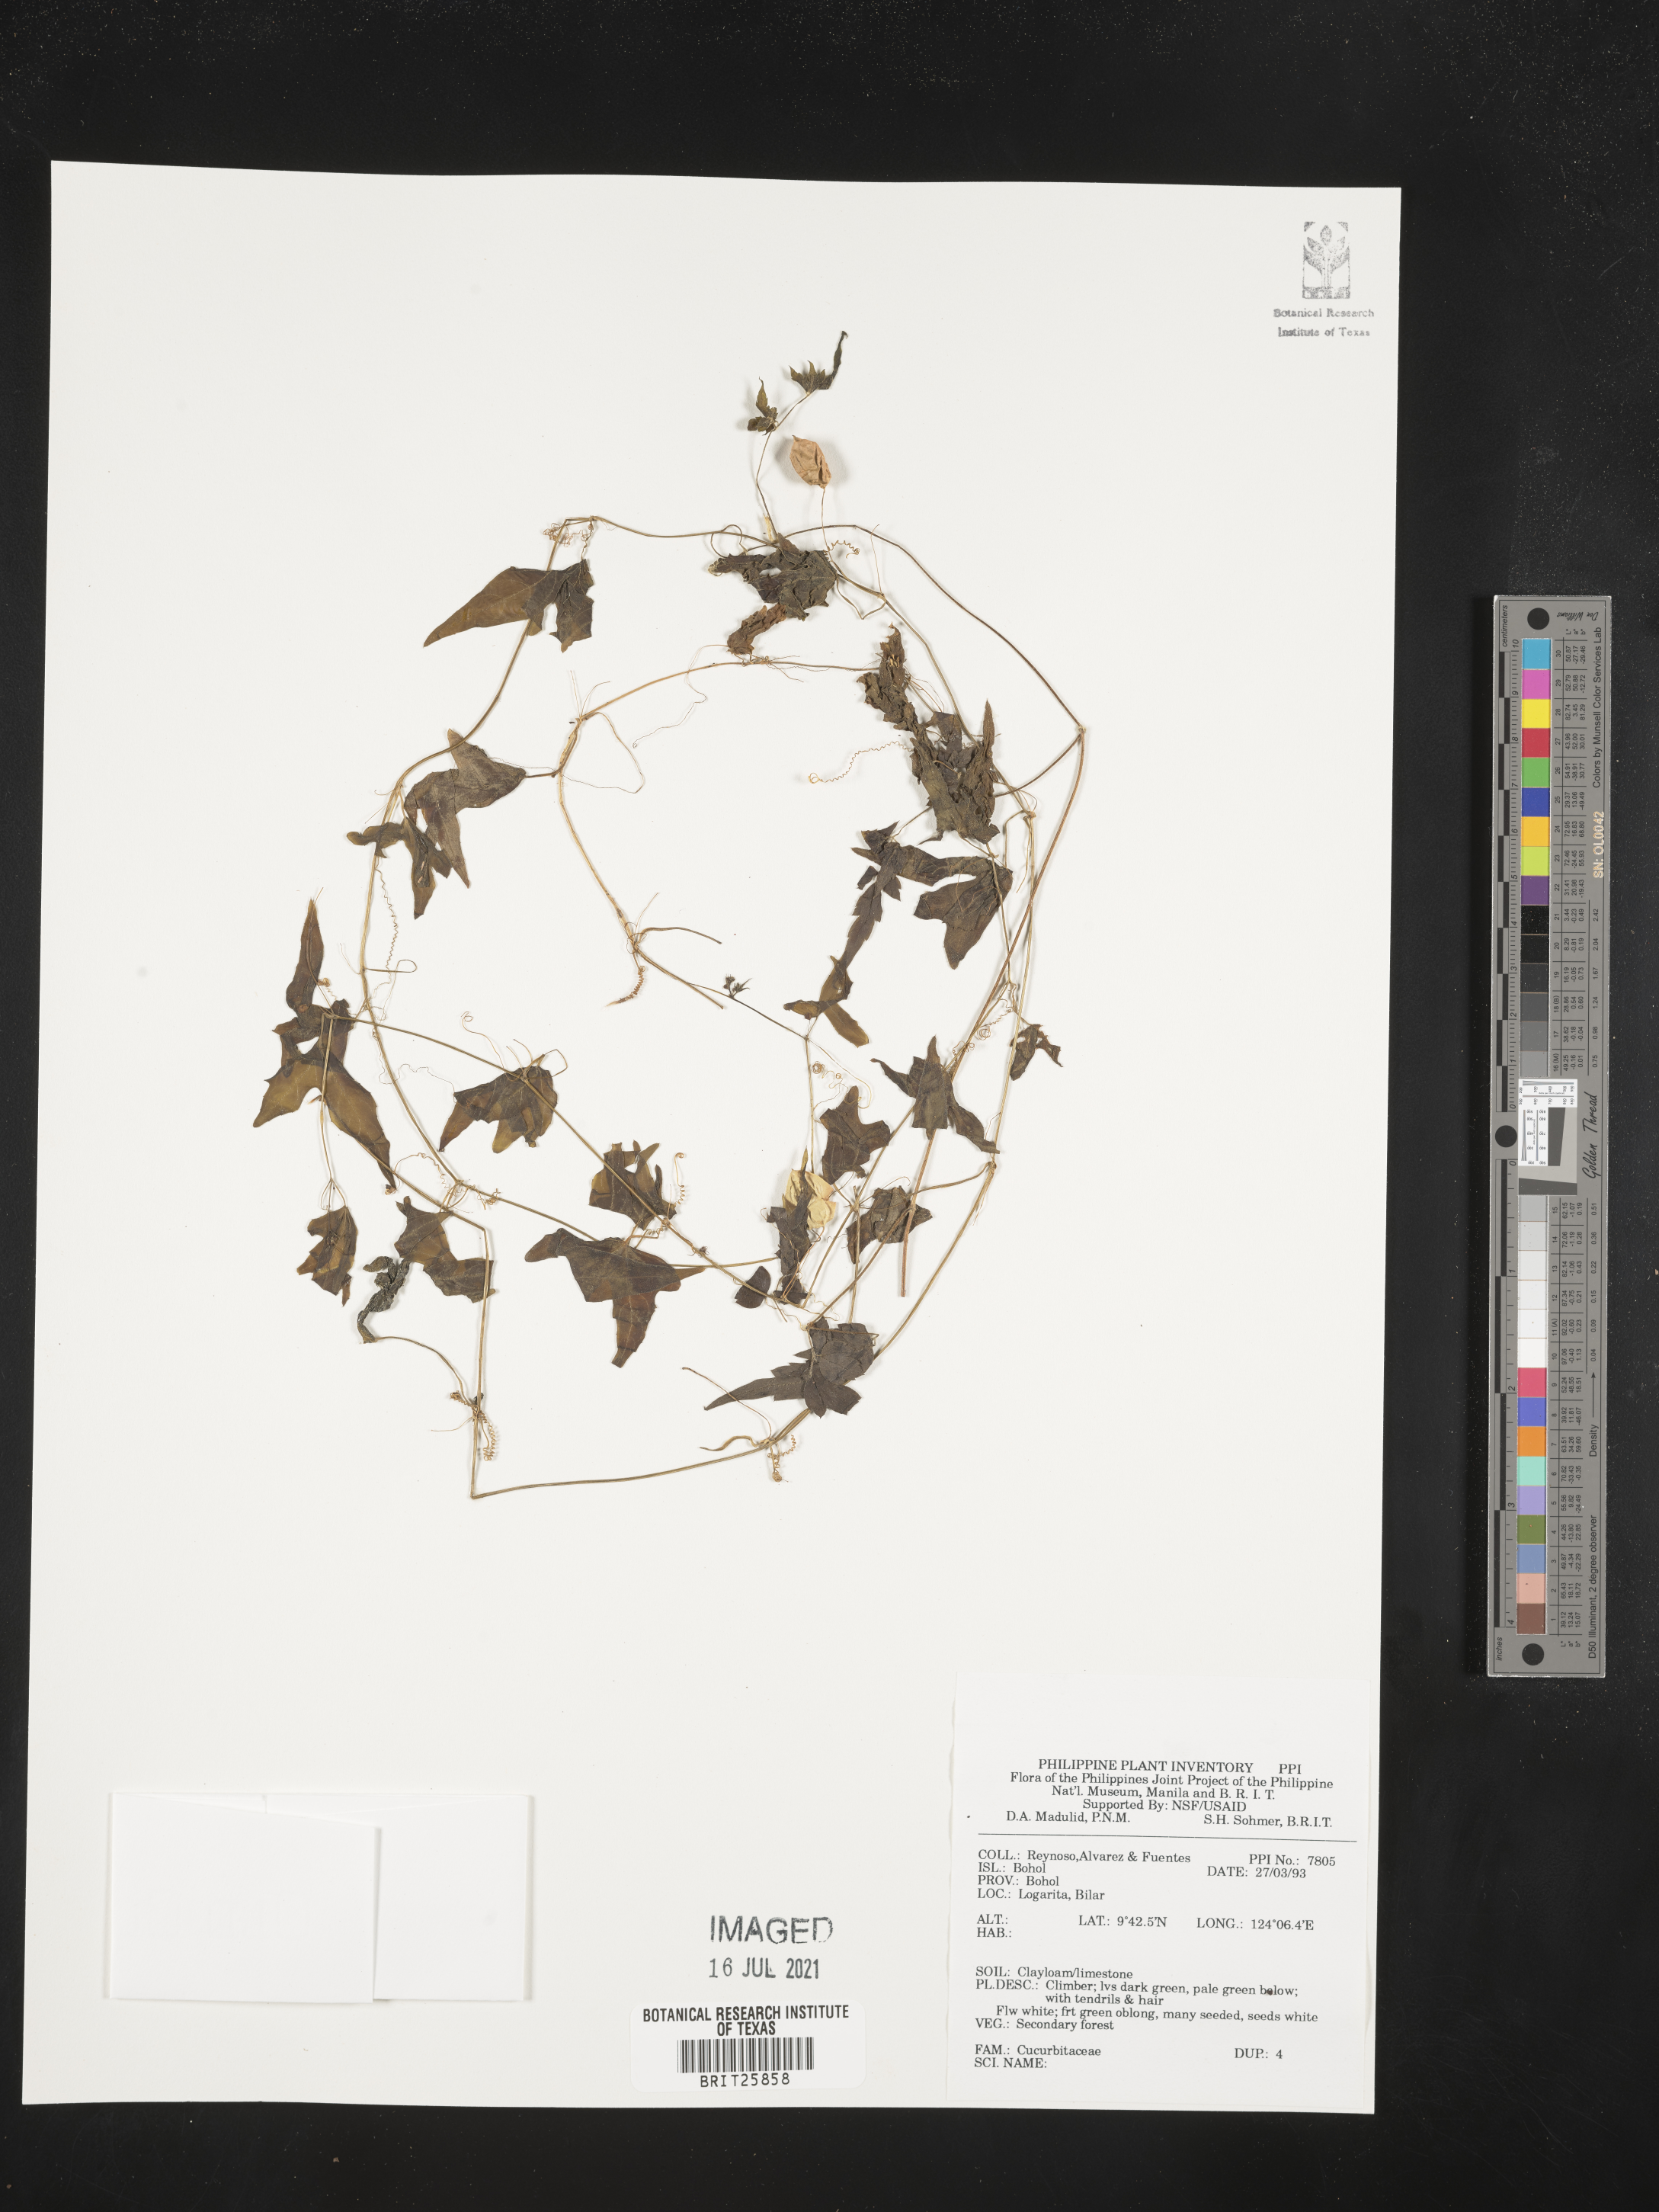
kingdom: Plantae
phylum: Tracheophyta
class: Magnoliopsida
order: Cucurbitales
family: Cucurbitaceae
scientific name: Cucurbitaceae
